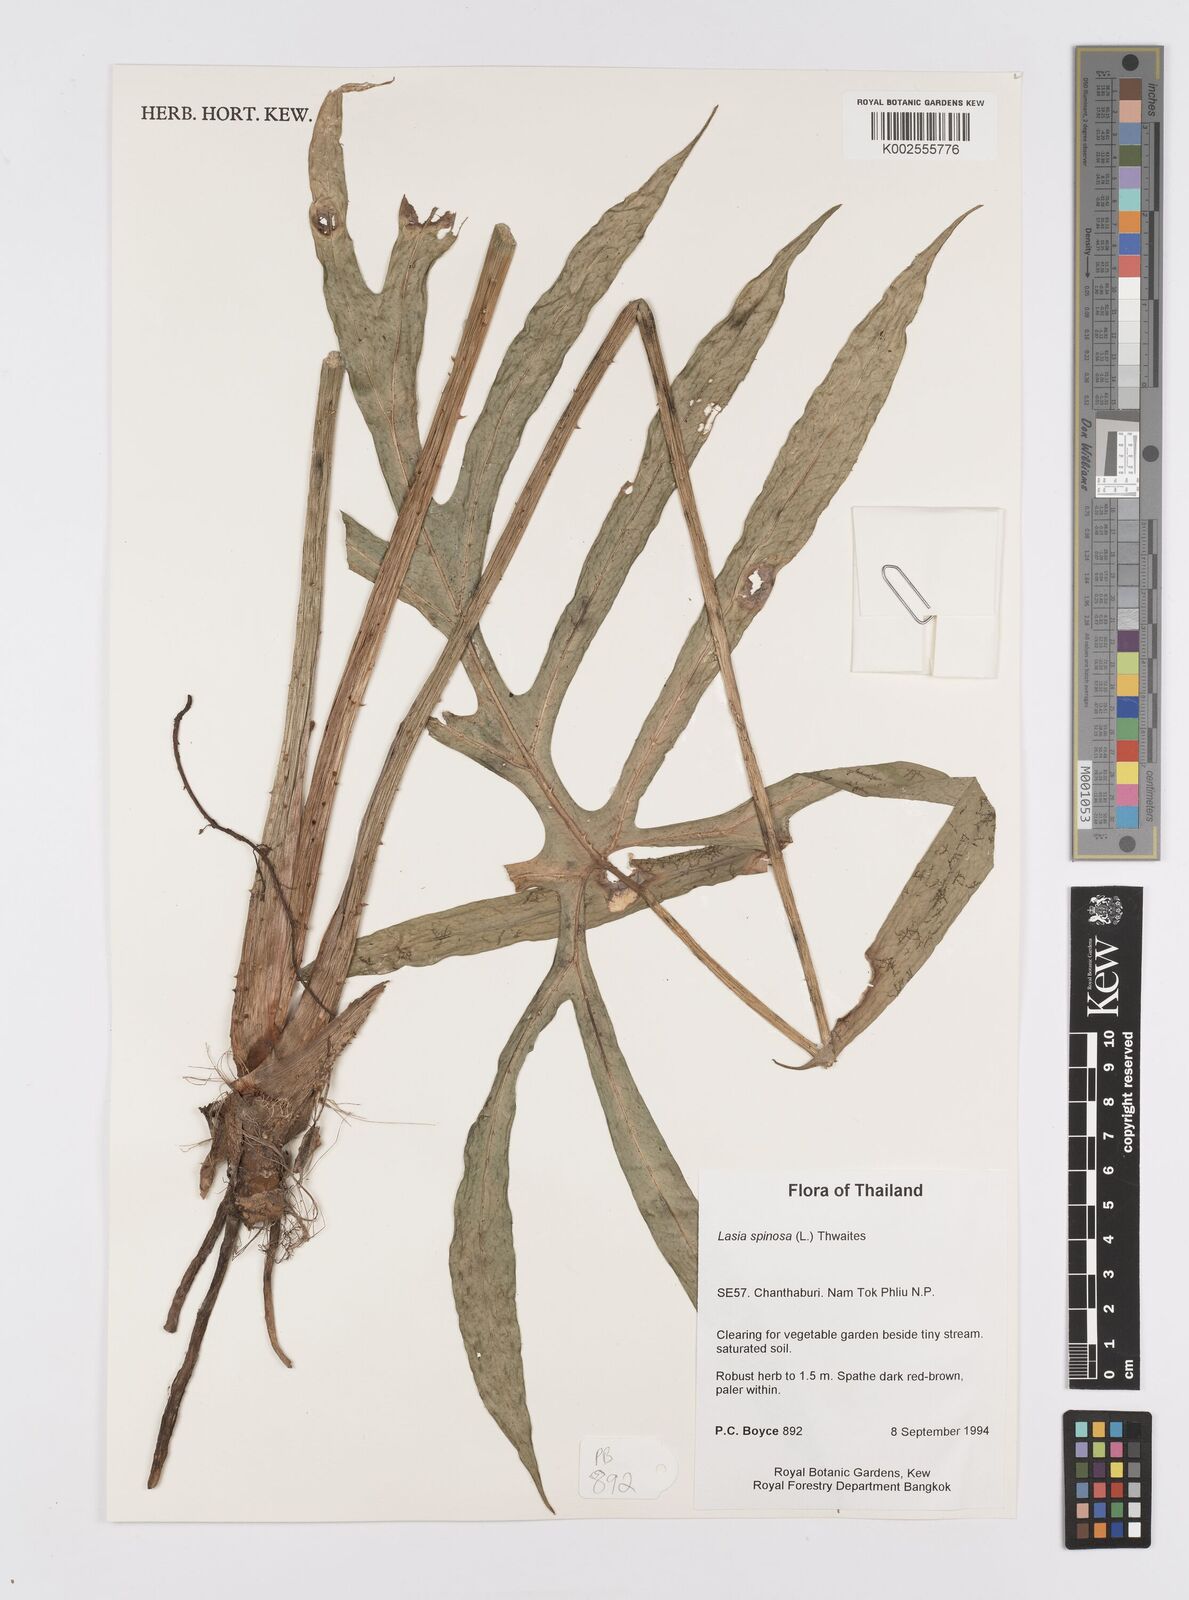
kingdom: Plantae
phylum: Tracheophyta
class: Liliopsida
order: Alismatales
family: Araceae
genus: Lasia
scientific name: Lasia spinosa
